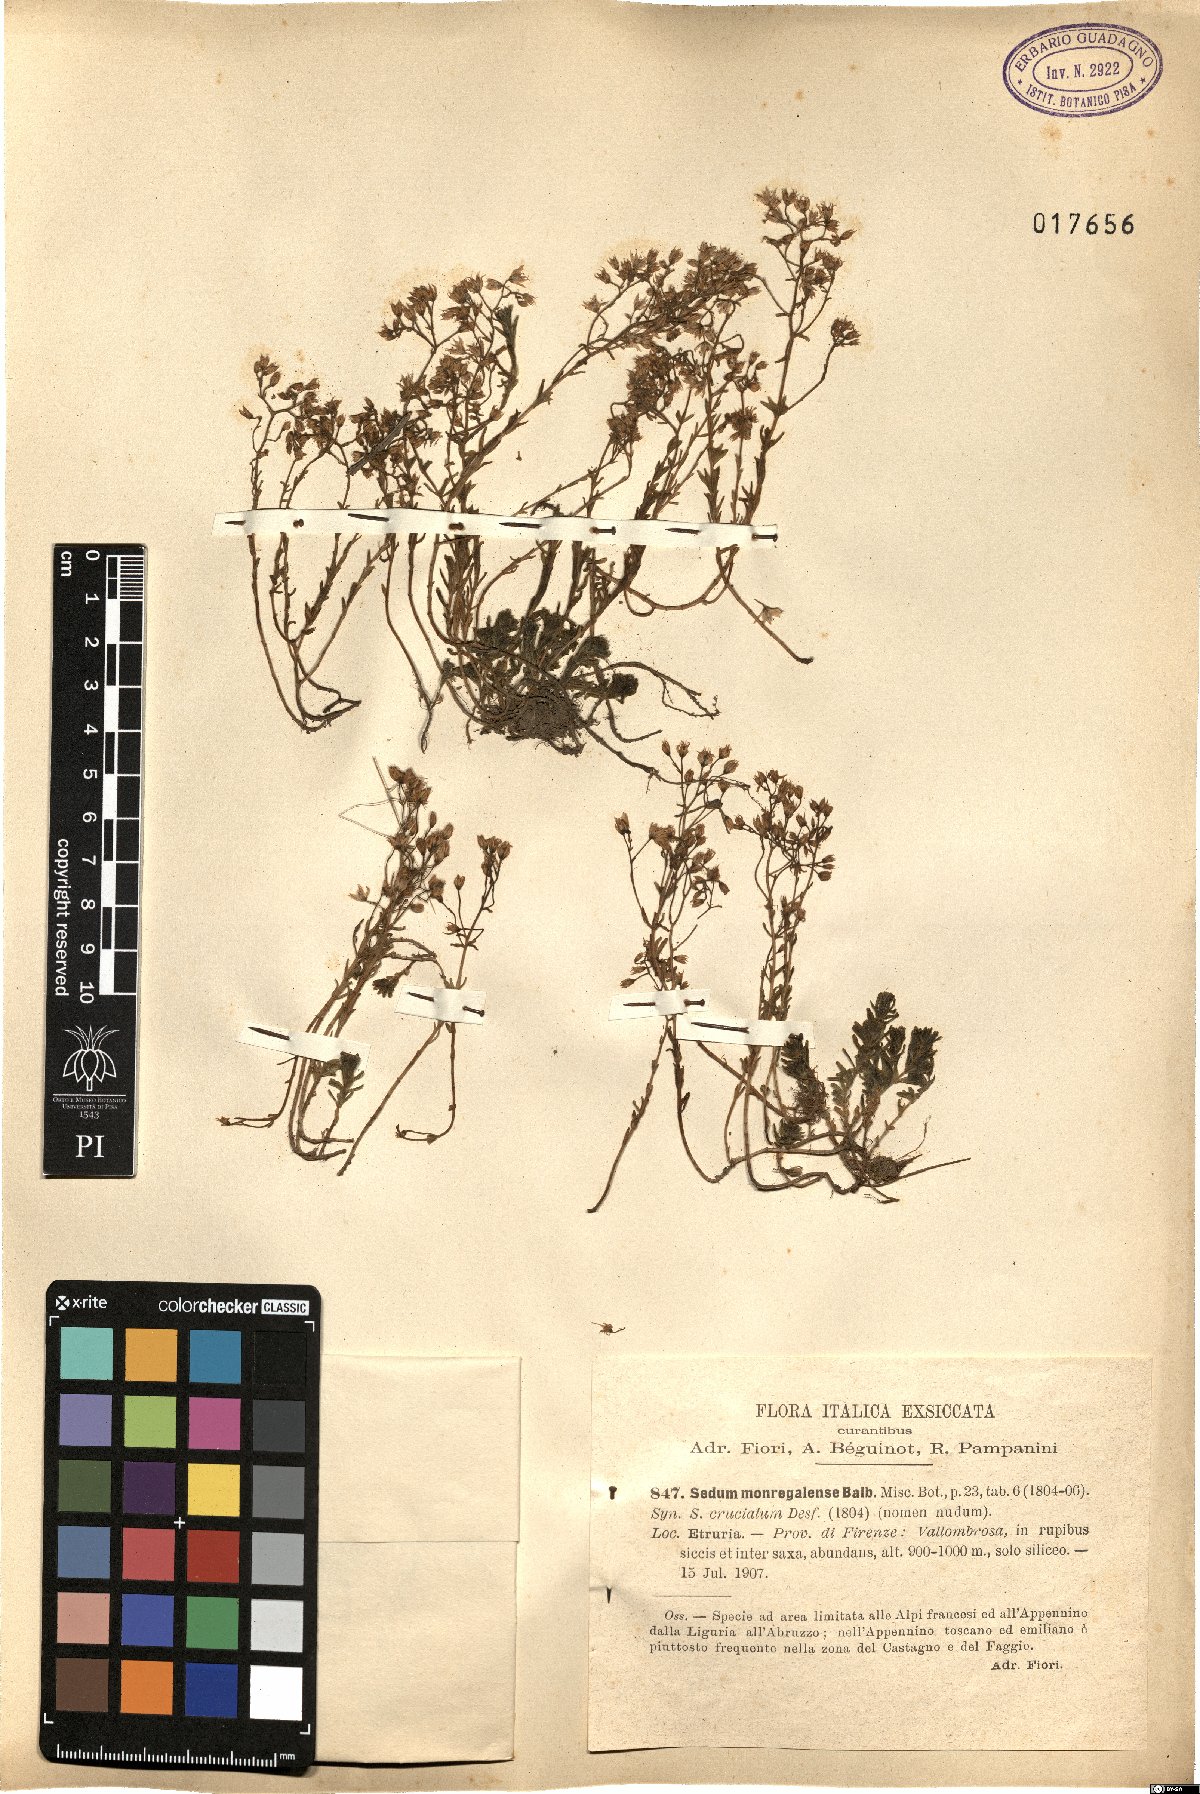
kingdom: Plantae
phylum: Tracheophyta
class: Magnoliopsida
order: Saxifragales
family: Crassulaceae
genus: Sedum
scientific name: Sedum monregalense
